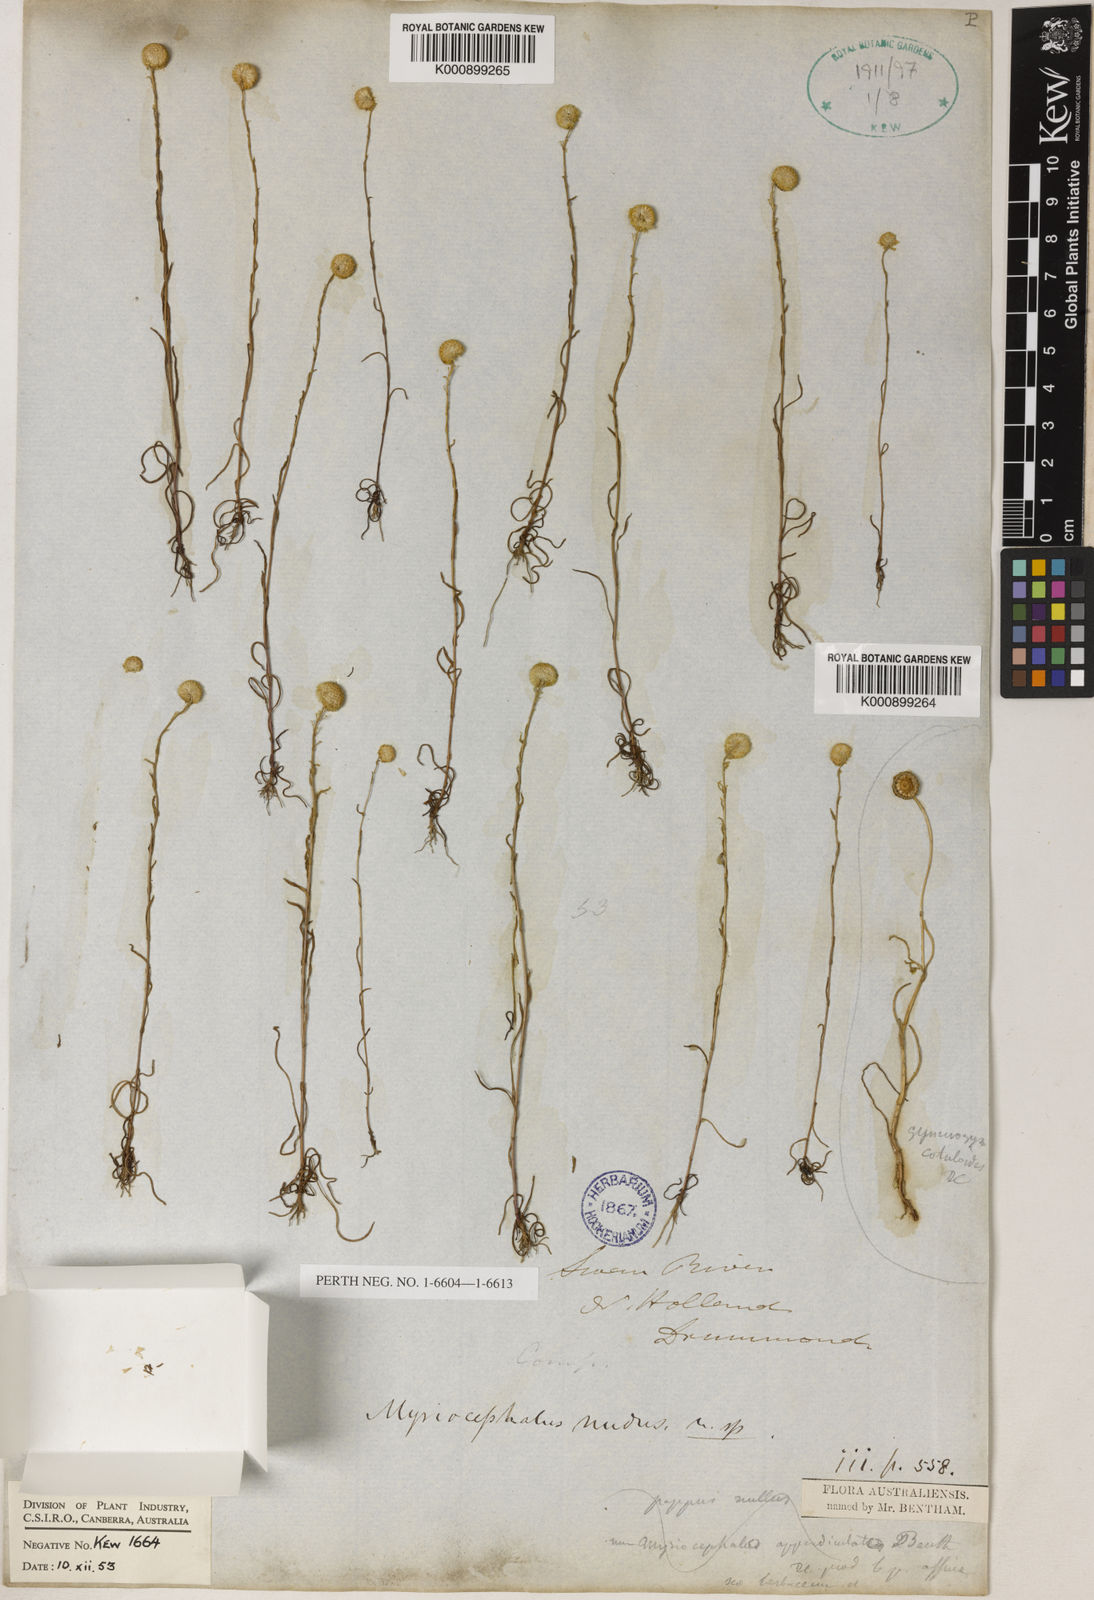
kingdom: Plantae
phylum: Tracheophyta
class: Magnoliopsida
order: Asterales
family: Asteraceae
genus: Myriocephalus
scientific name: Myriocephalus nudus
